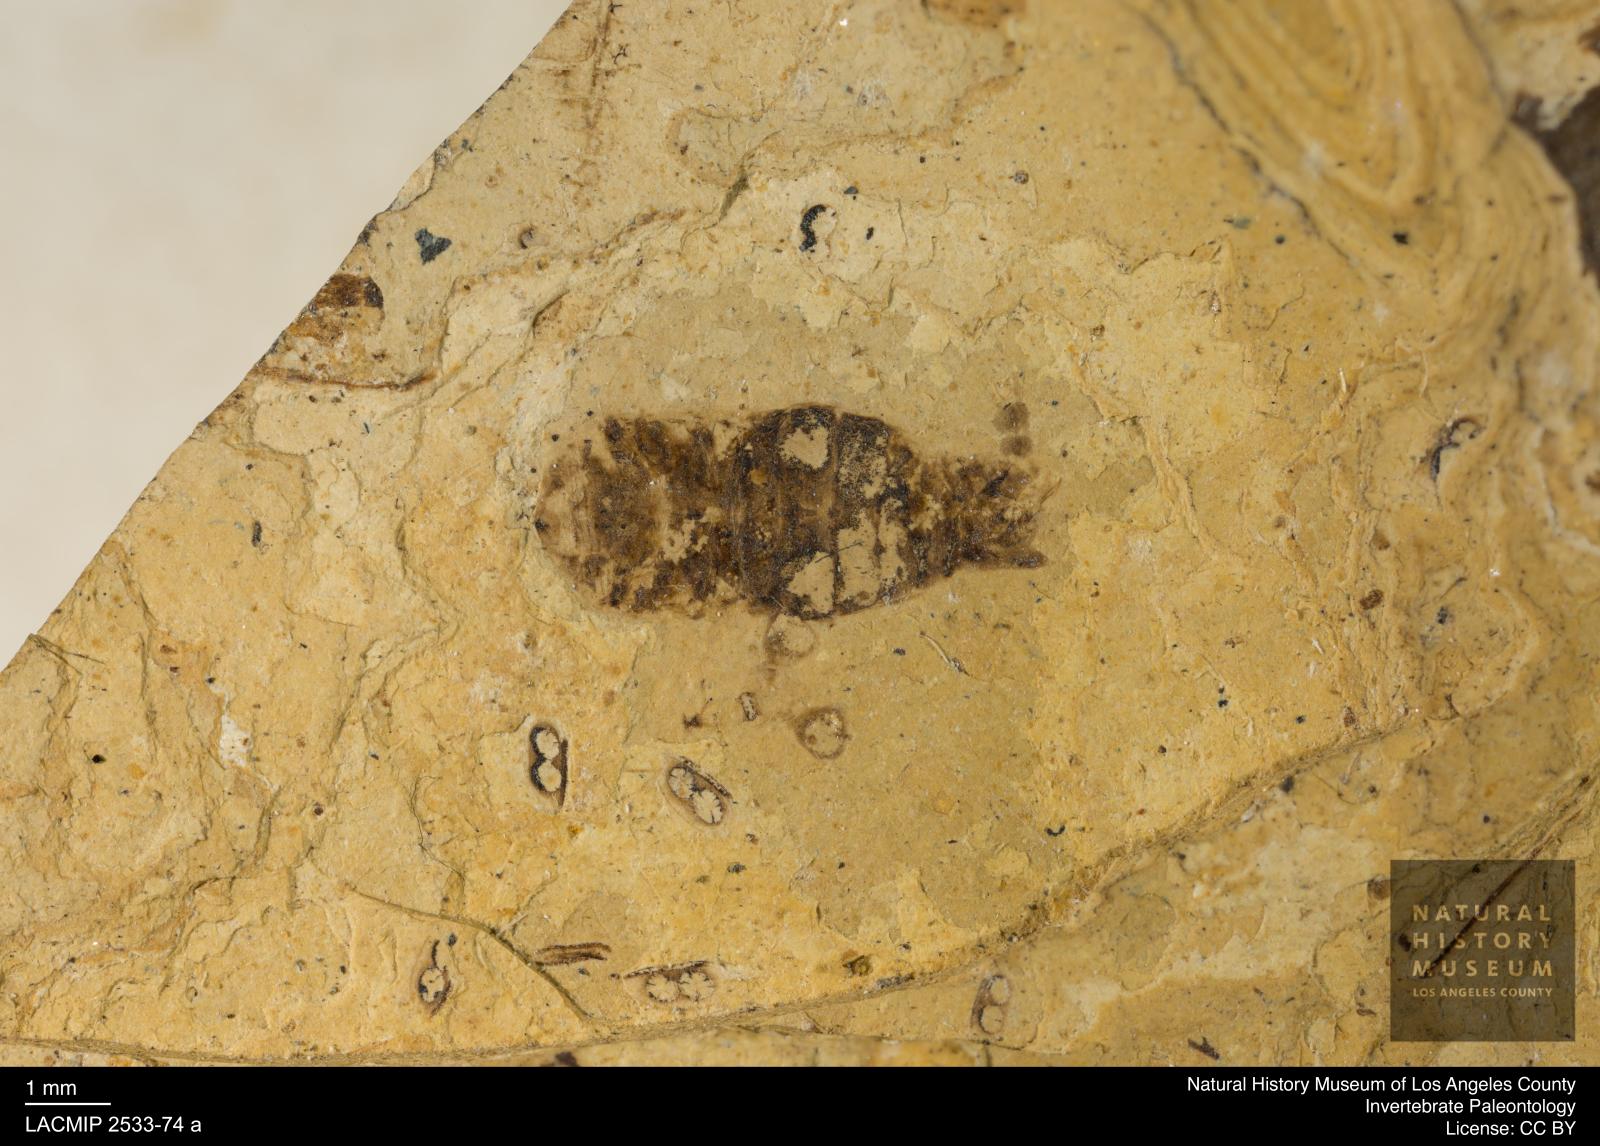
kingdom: Animalia
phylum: Arthropoda
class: Insecta
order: Hemiptera
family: Corixidae
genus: Corixa
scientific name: Corixa
